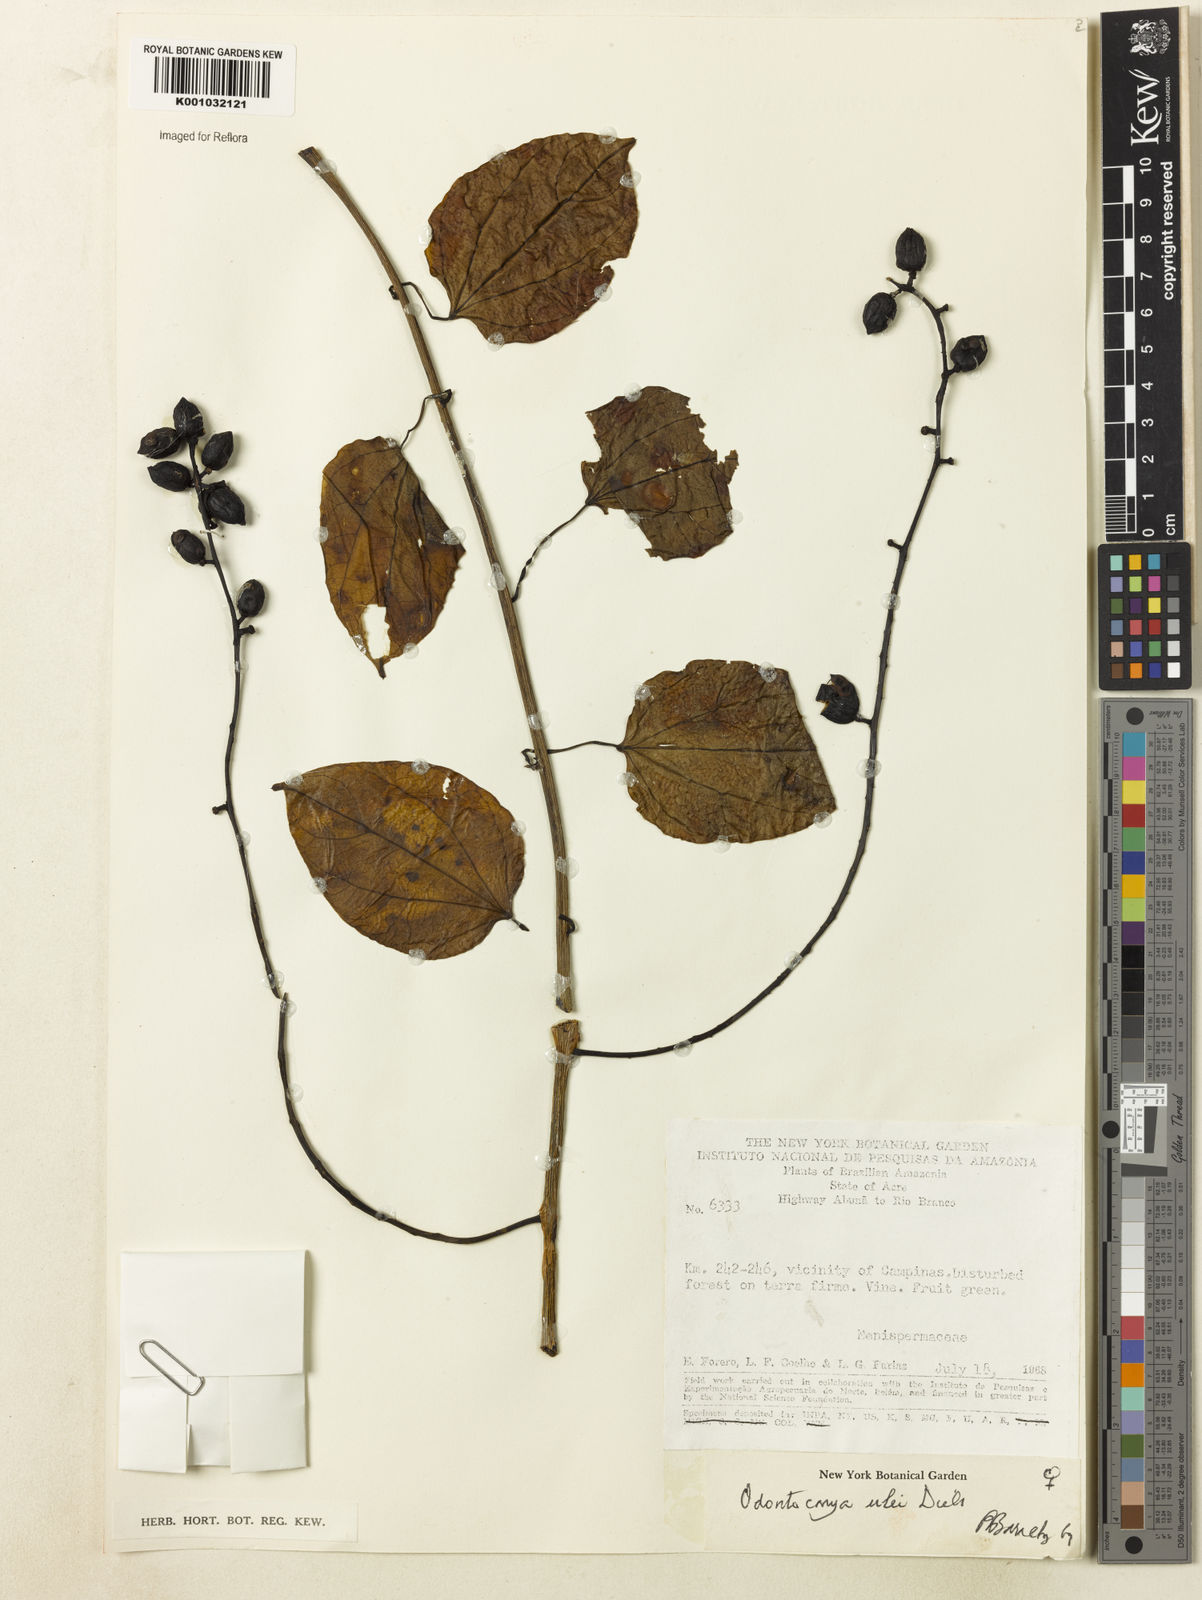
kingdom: Plantae
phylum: Tracheophyta
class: Magnoliopsida
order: Ranunculales
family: Menispermaceae
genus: Odontocarya
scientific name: Odontocarya ulei
